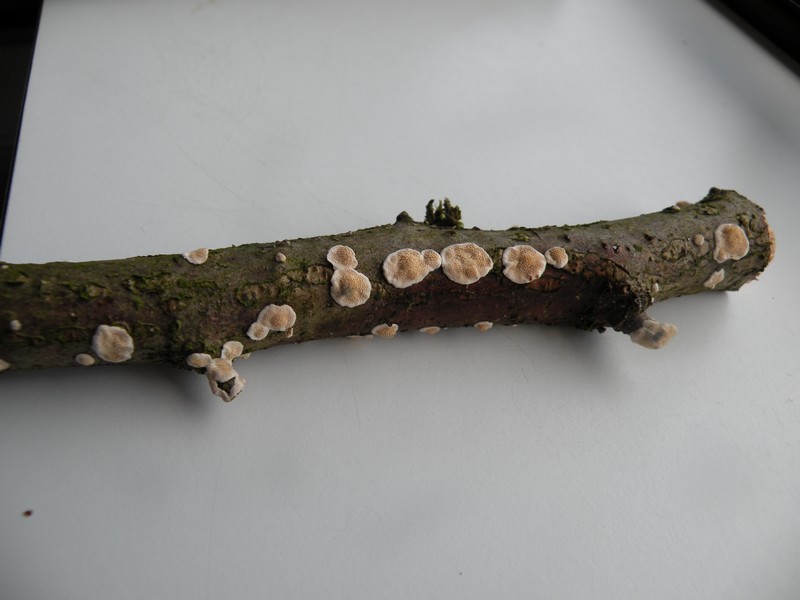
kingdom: Fungi
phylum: Basidiomycota
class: Agaricomycetes
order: Polyporales
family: Steccherinaceae
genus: Steccherinum
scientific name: Steccherinum ochraceum
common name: almindelig skønpig
